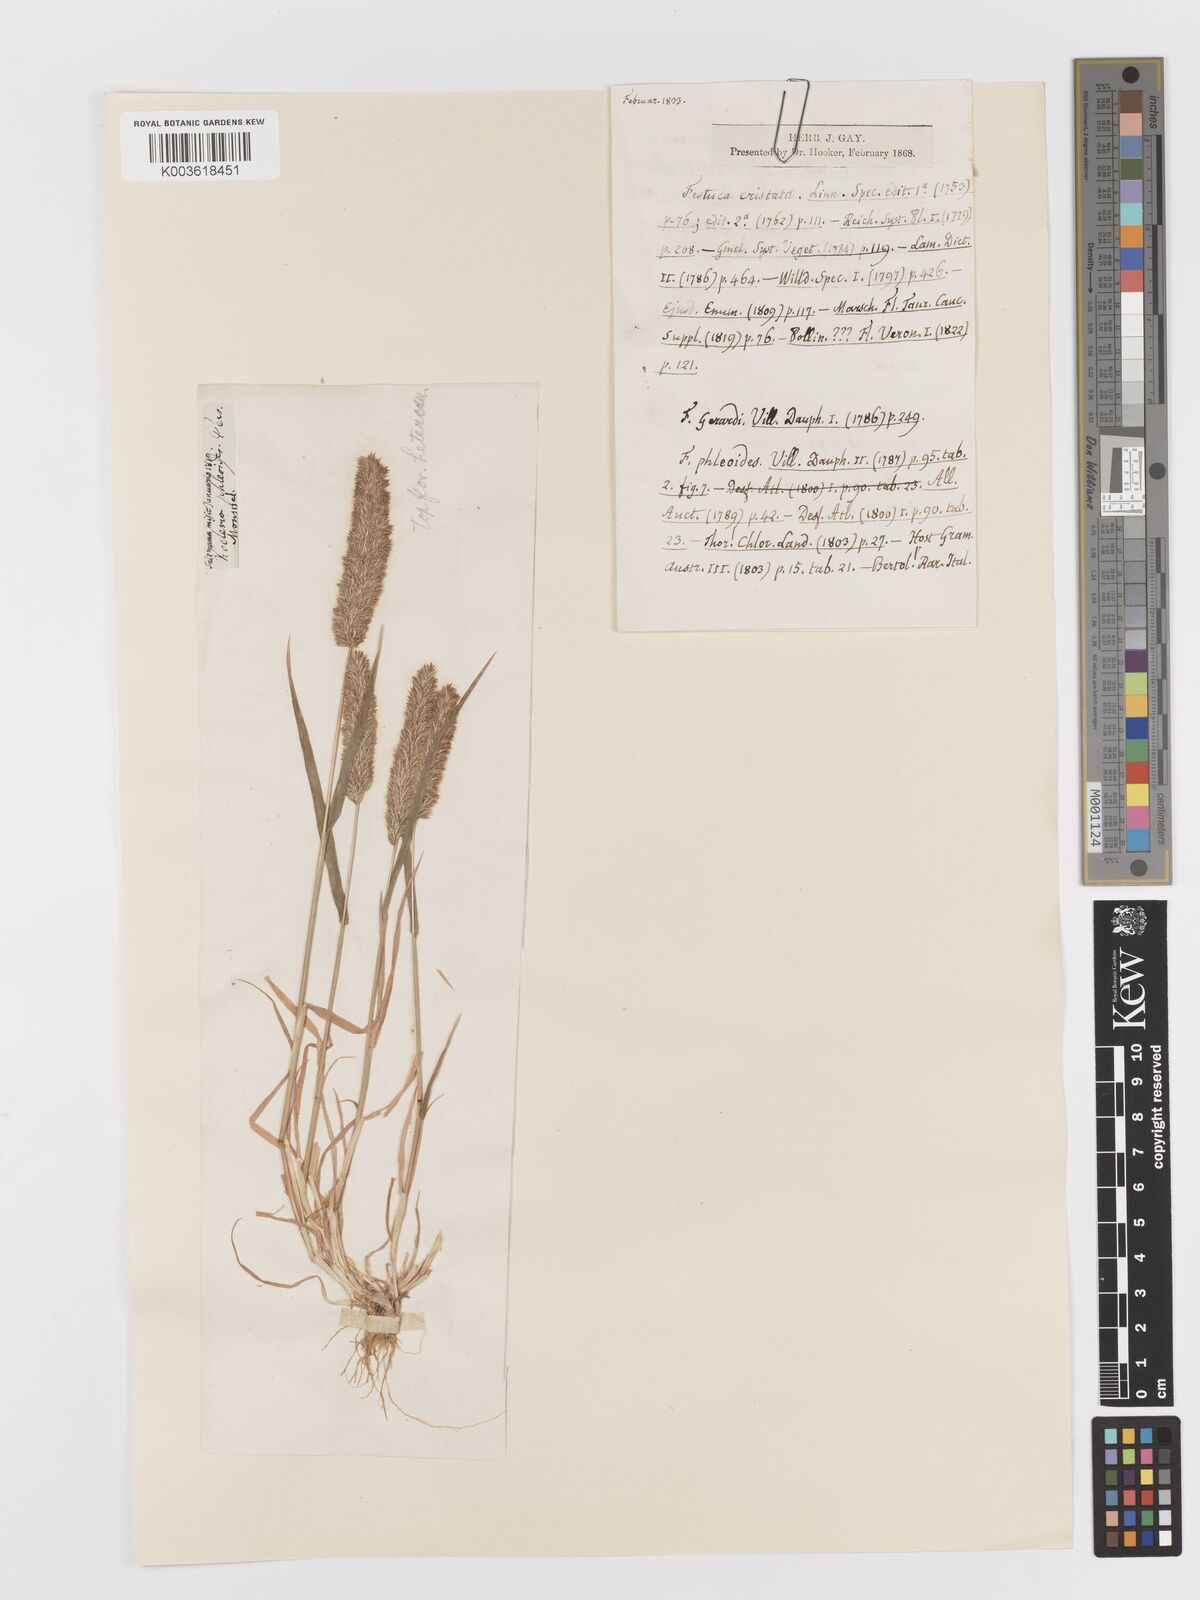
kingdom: Plantae
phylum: Tracheophyta
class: Liliopsida
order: Poales
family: Poaceae
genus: Rostraria
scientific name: Rostraria cristata
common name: Mediterranean hair-grass
